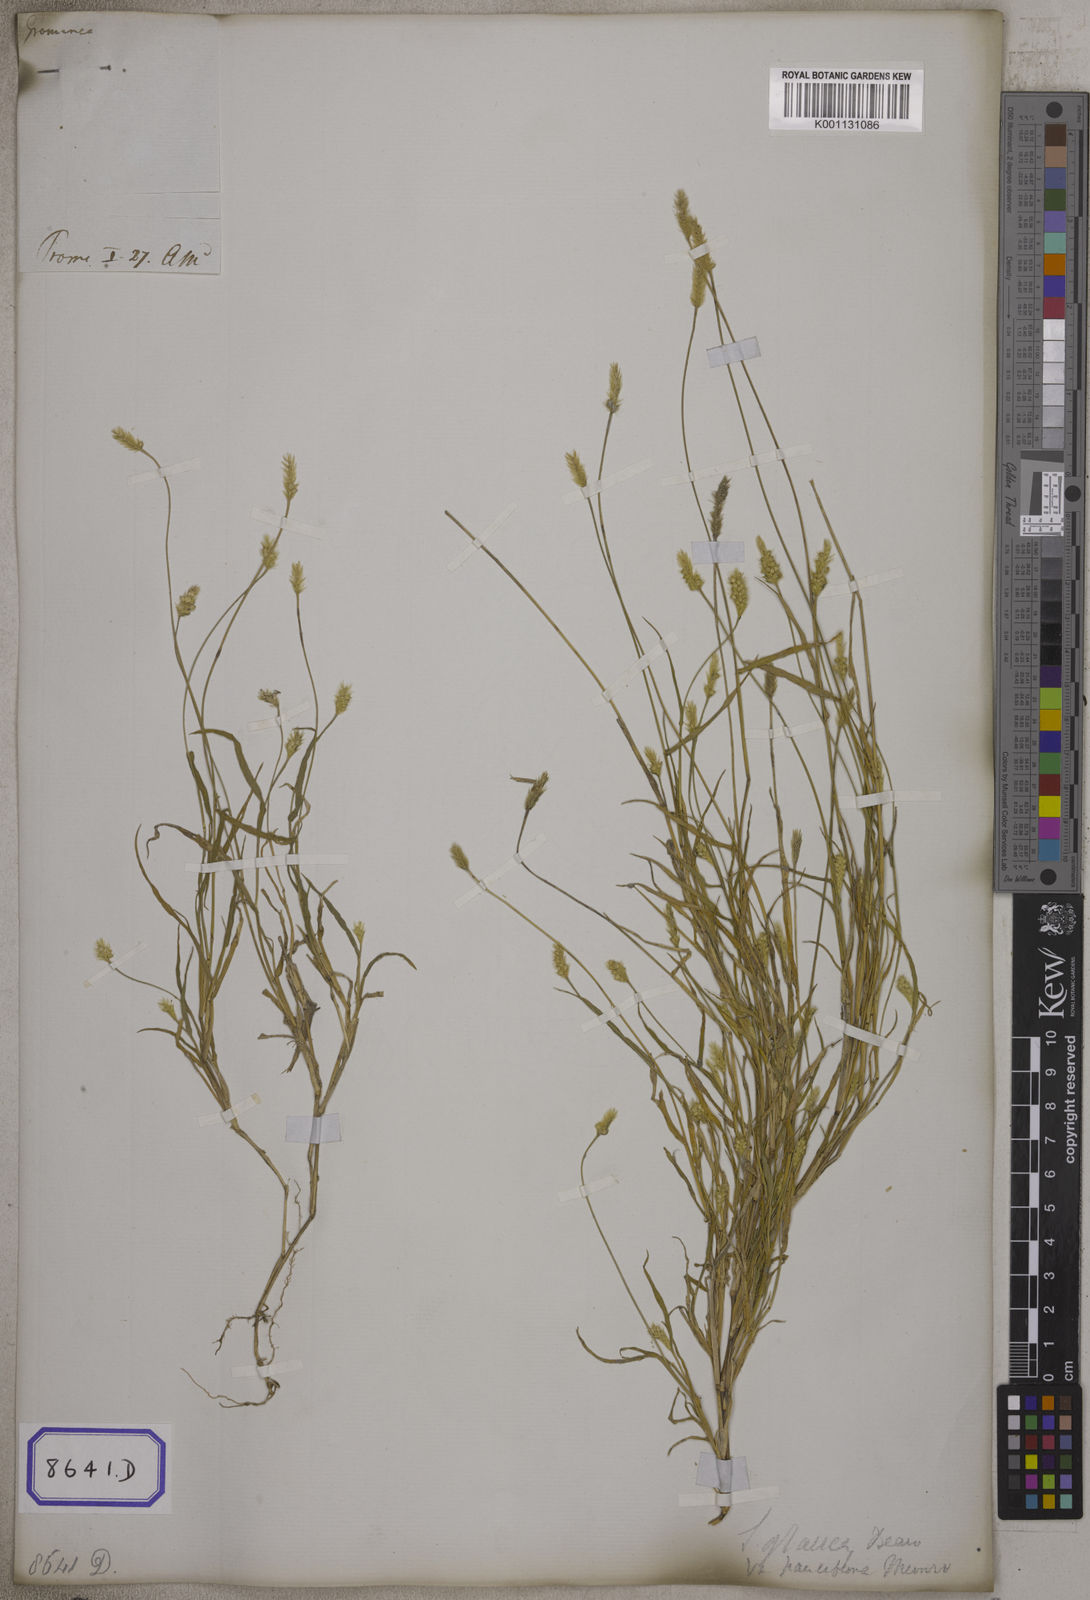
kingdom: Plantae
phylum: Tracheophyta
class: Liliopsida
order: Poales
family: Poaceae
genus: Setaria
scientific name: Setaria parviflora
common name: Knotroot bristle-grass
